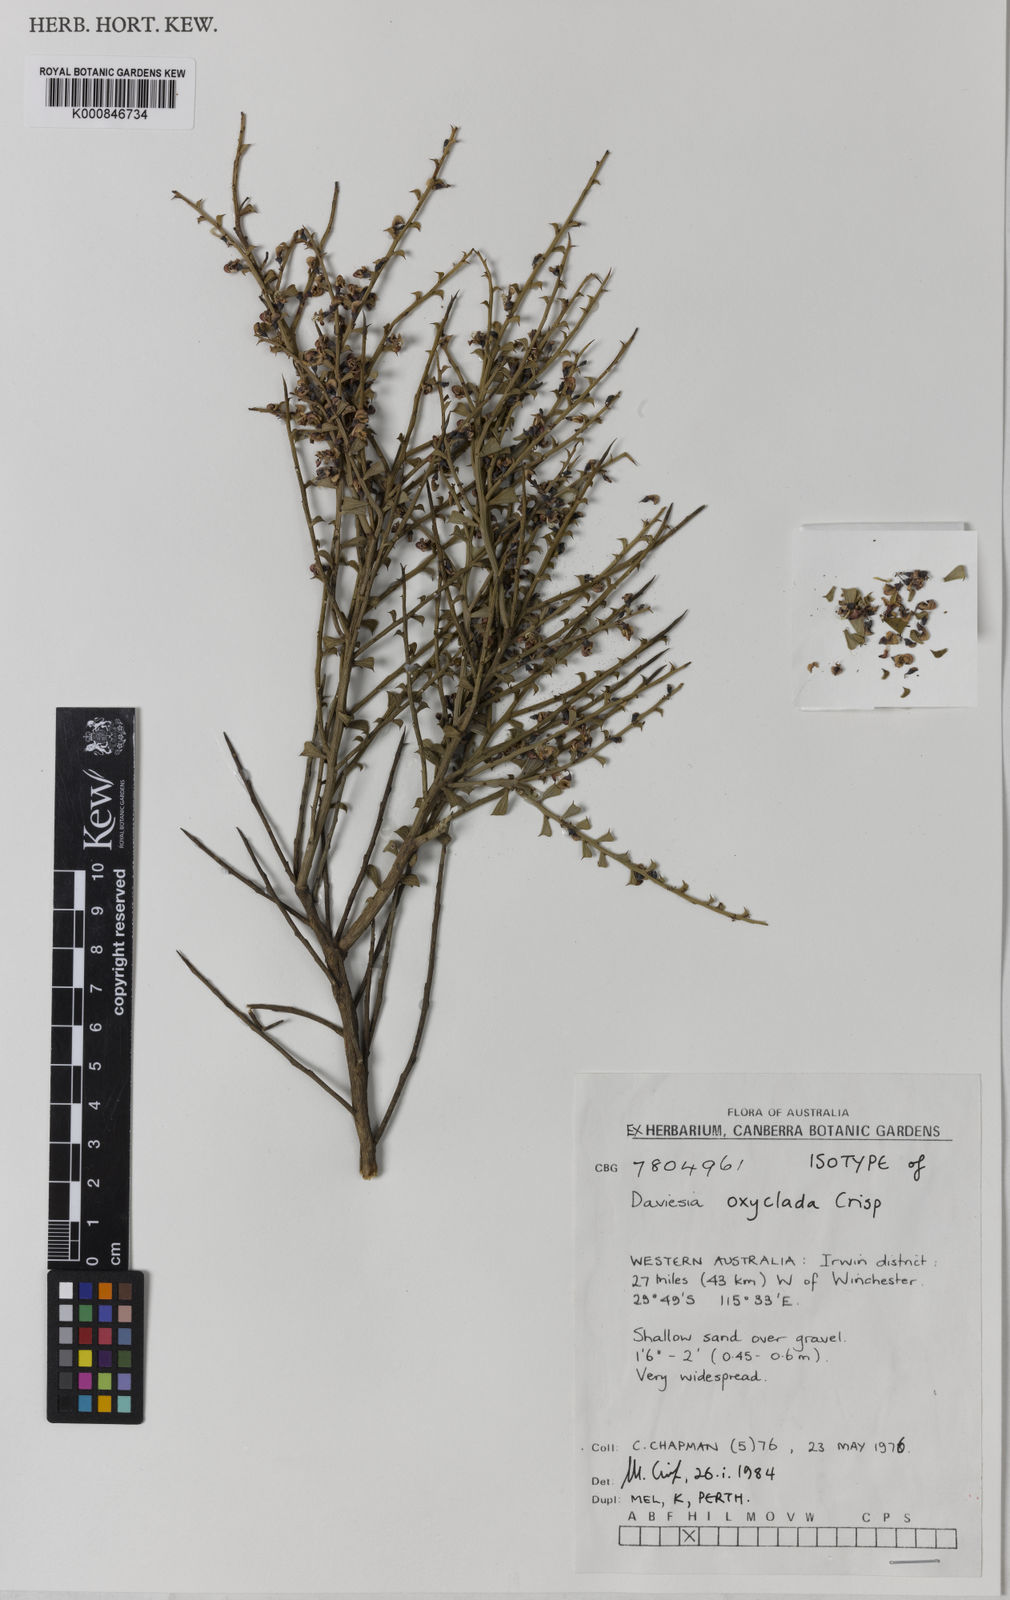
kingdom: Plantae
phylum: Tracheophyta
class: Magnoliopsida
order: Fabales
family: Fabaceae
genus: Daviesia
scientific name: Daviesia oxyclada
